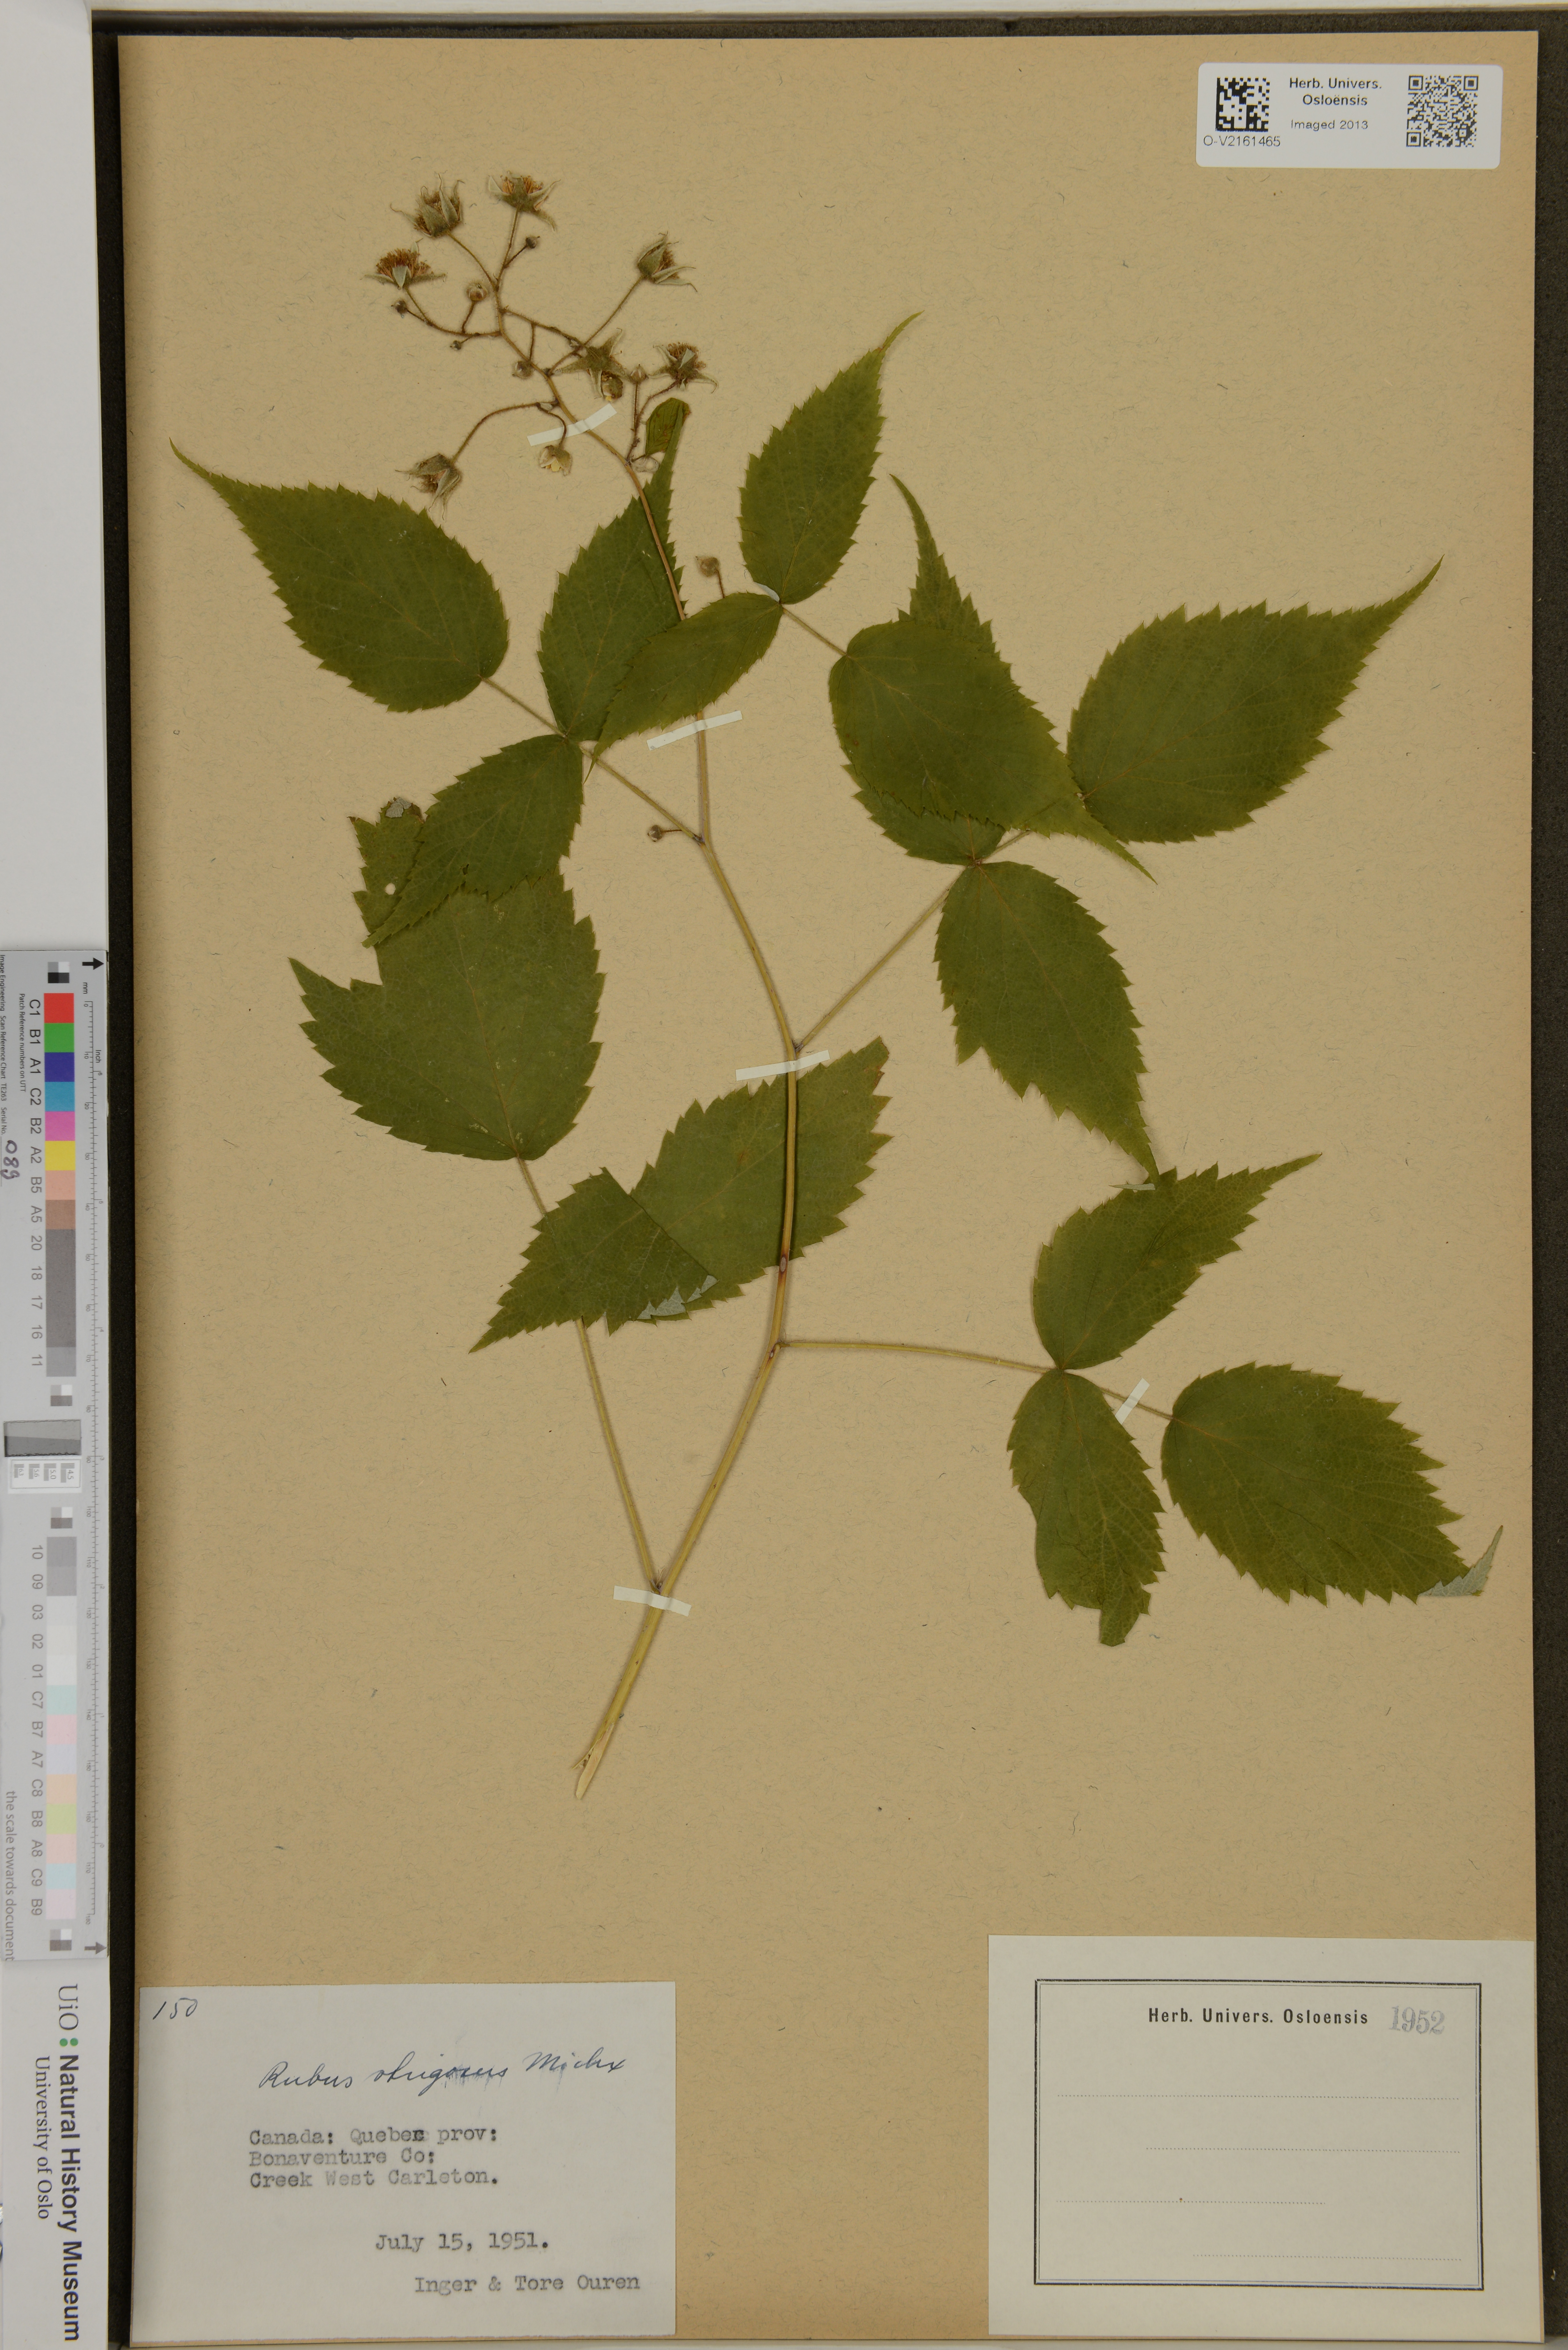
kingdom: Plantae
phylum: Tracheophyta
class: Magnoliopsida
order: Rosales
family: Rosaceae
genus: Rubus
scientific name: Rubus idaeus
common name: Raspberry
